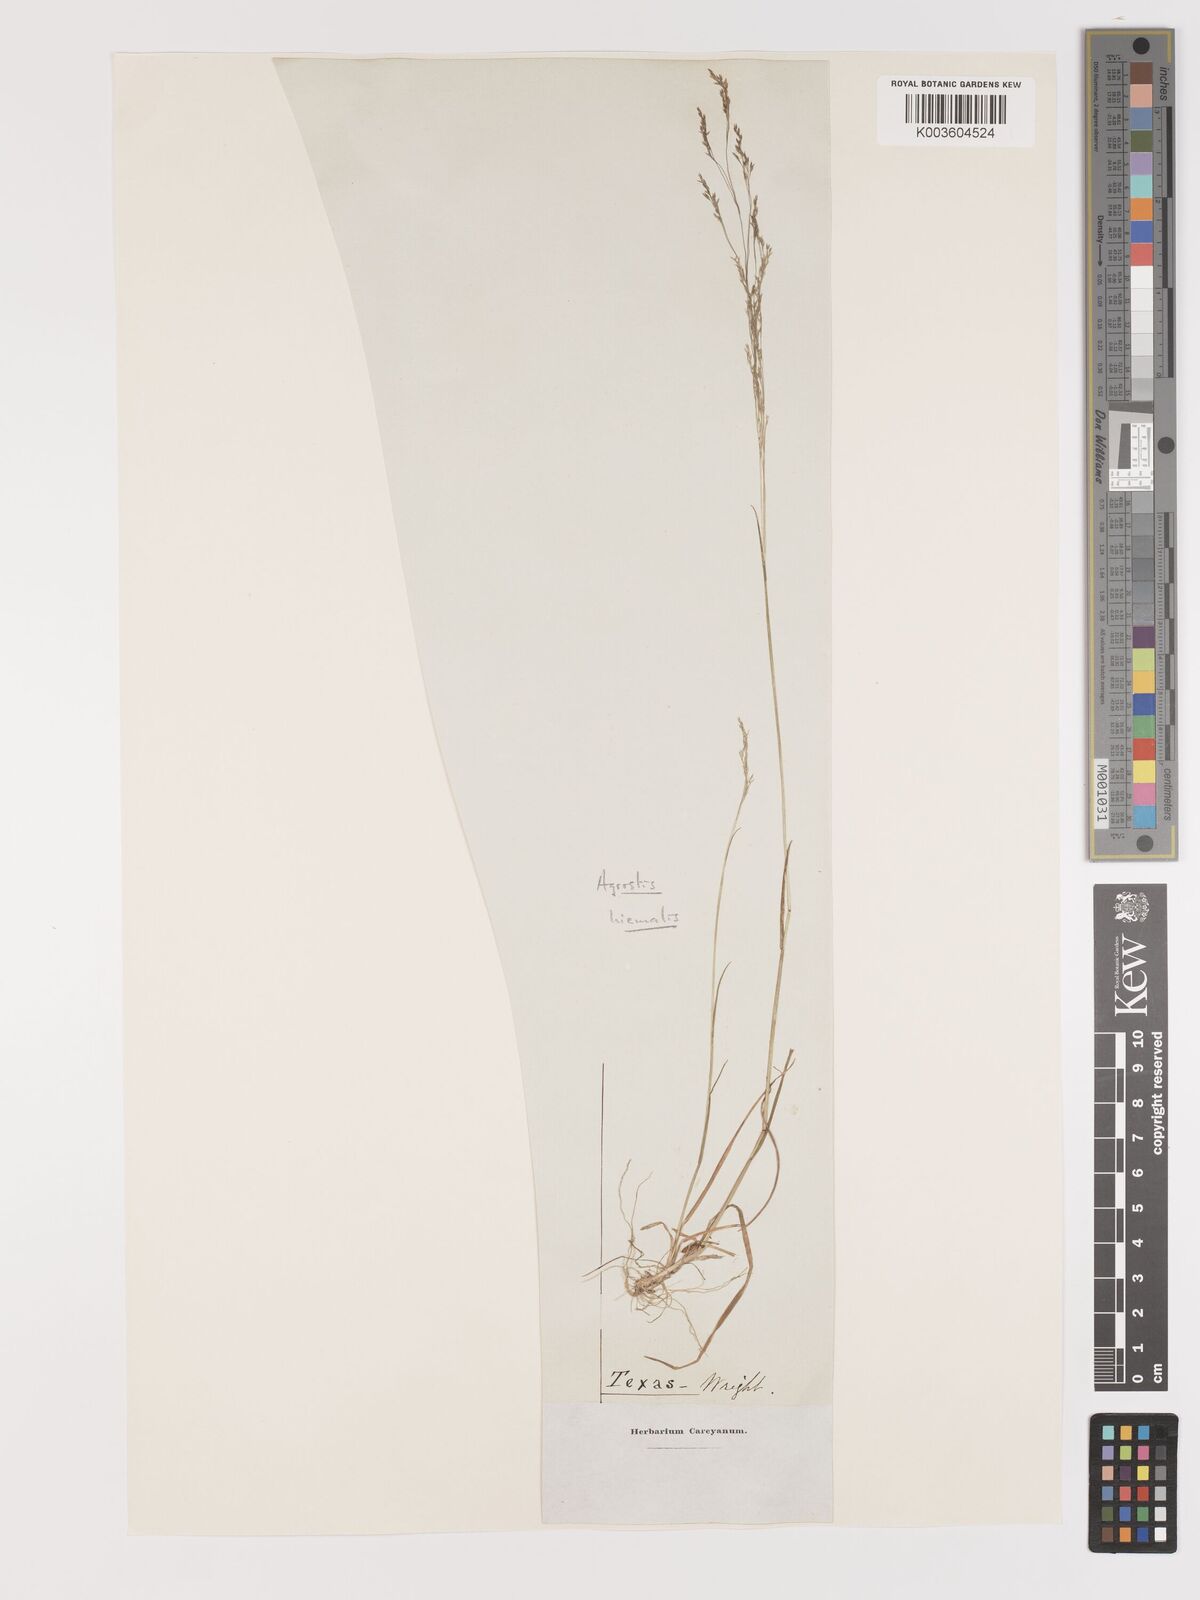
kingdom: Plantae
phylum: Tracheophyta
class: Liliopsida
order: Poales
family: Poaceae
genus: Agrostis
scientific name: Agrostis hyemalis
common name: Small bent
